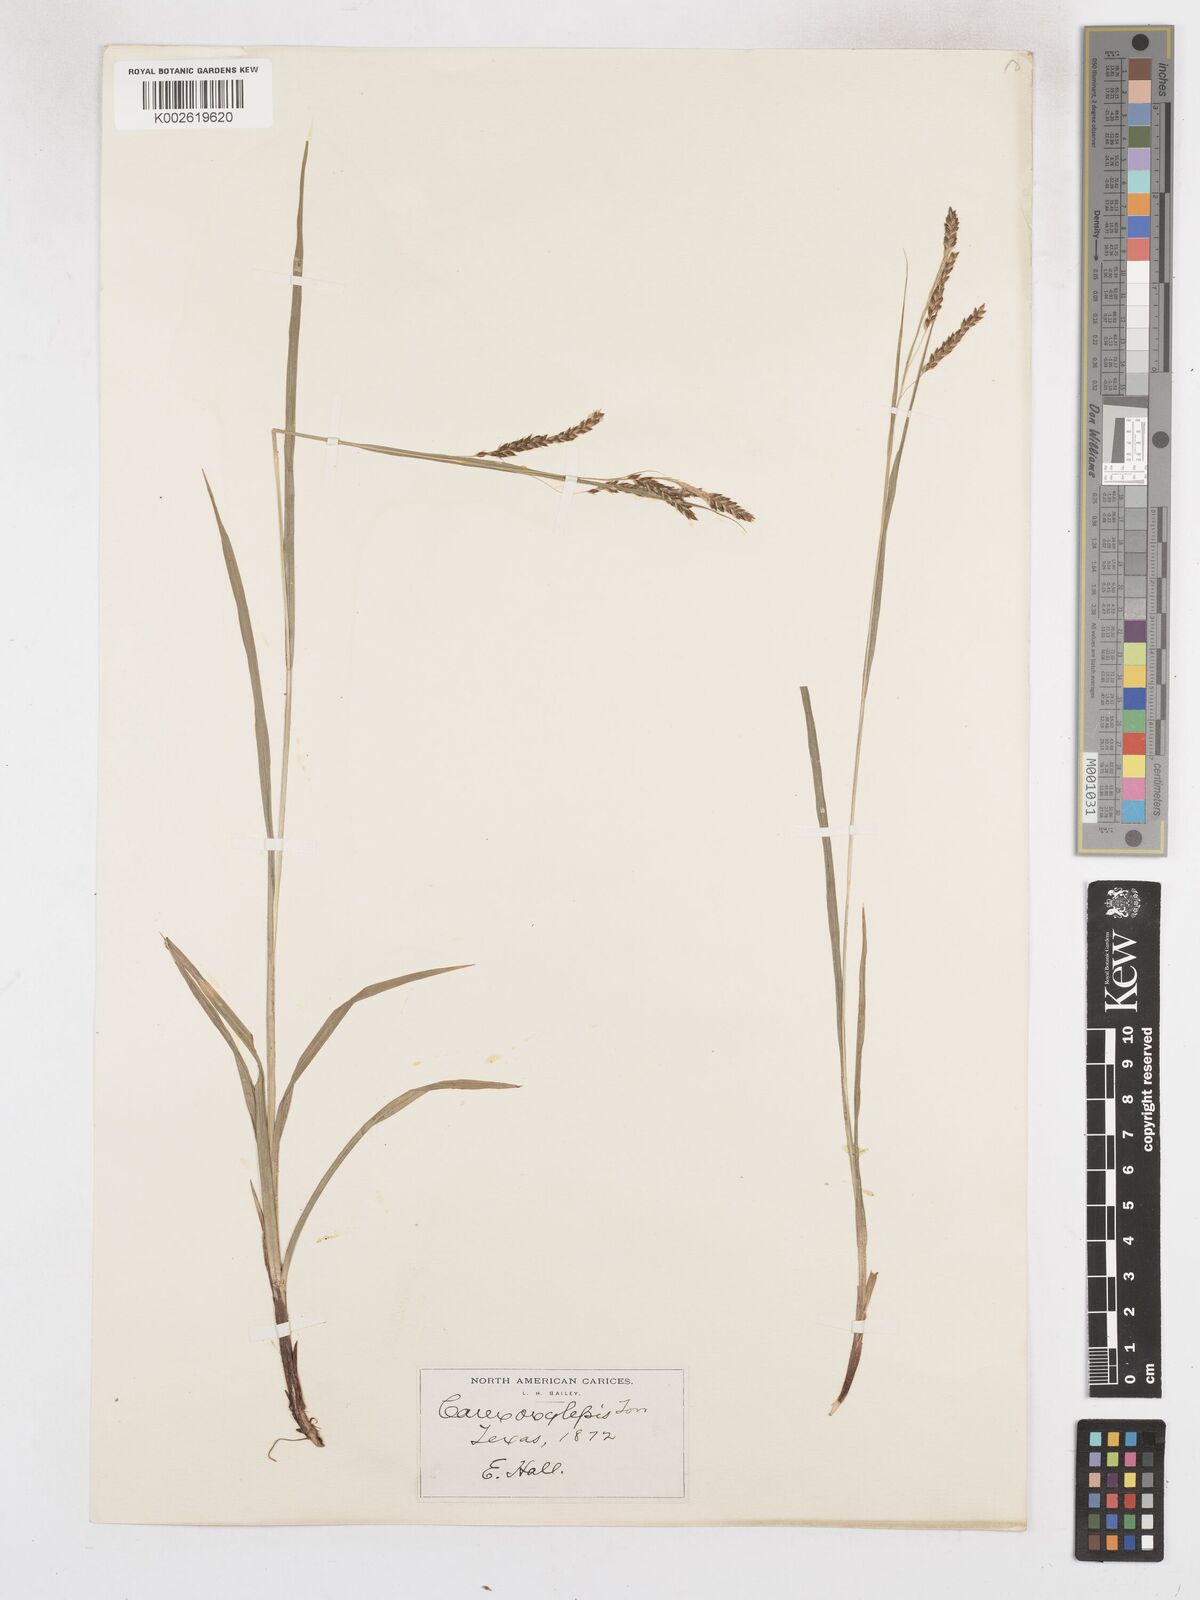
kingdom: Plantae
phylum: Tracheophyta
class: Liliopsida
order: Poales
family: Cyperaceae
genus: Carex
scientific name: Carex oxylepis
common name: Sharpscale sedge
